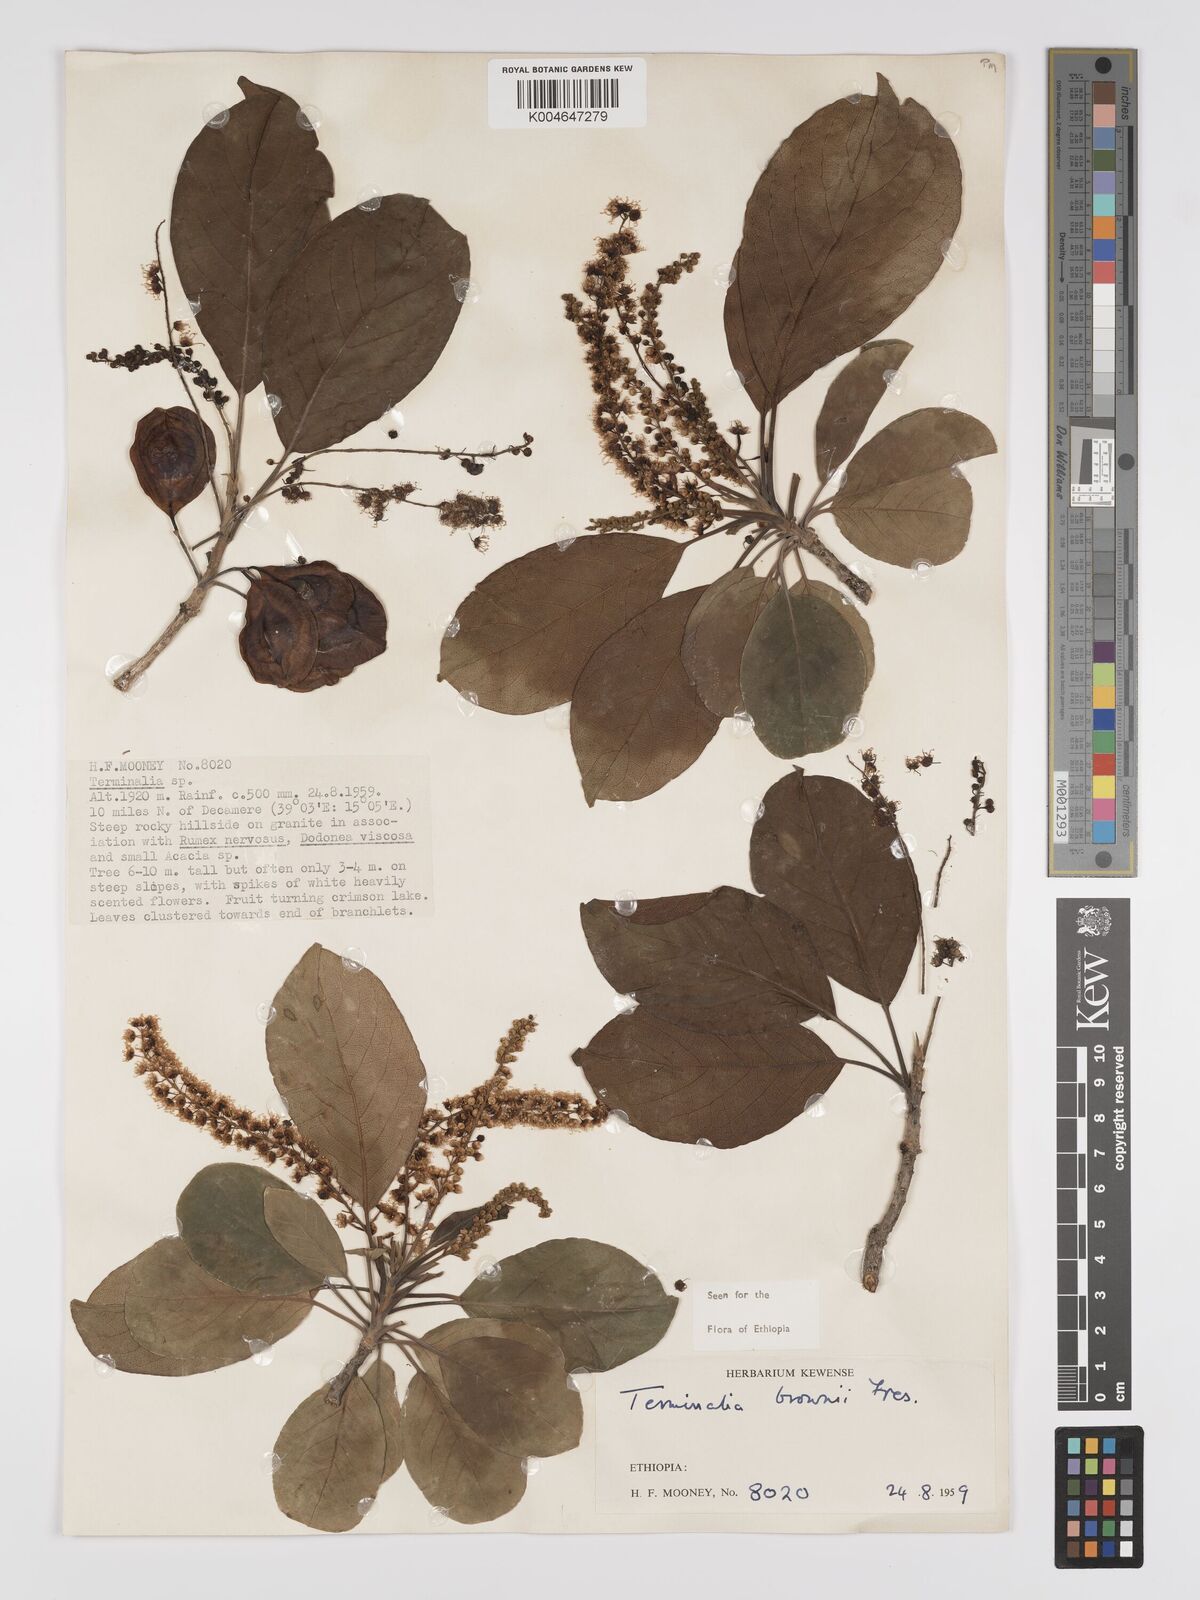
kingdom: Plantae
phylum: Tracheophyta
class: Magnoliopsida
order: Myrtales
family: Combretaceae
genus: Terminalia
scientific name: Terminalia brownii
